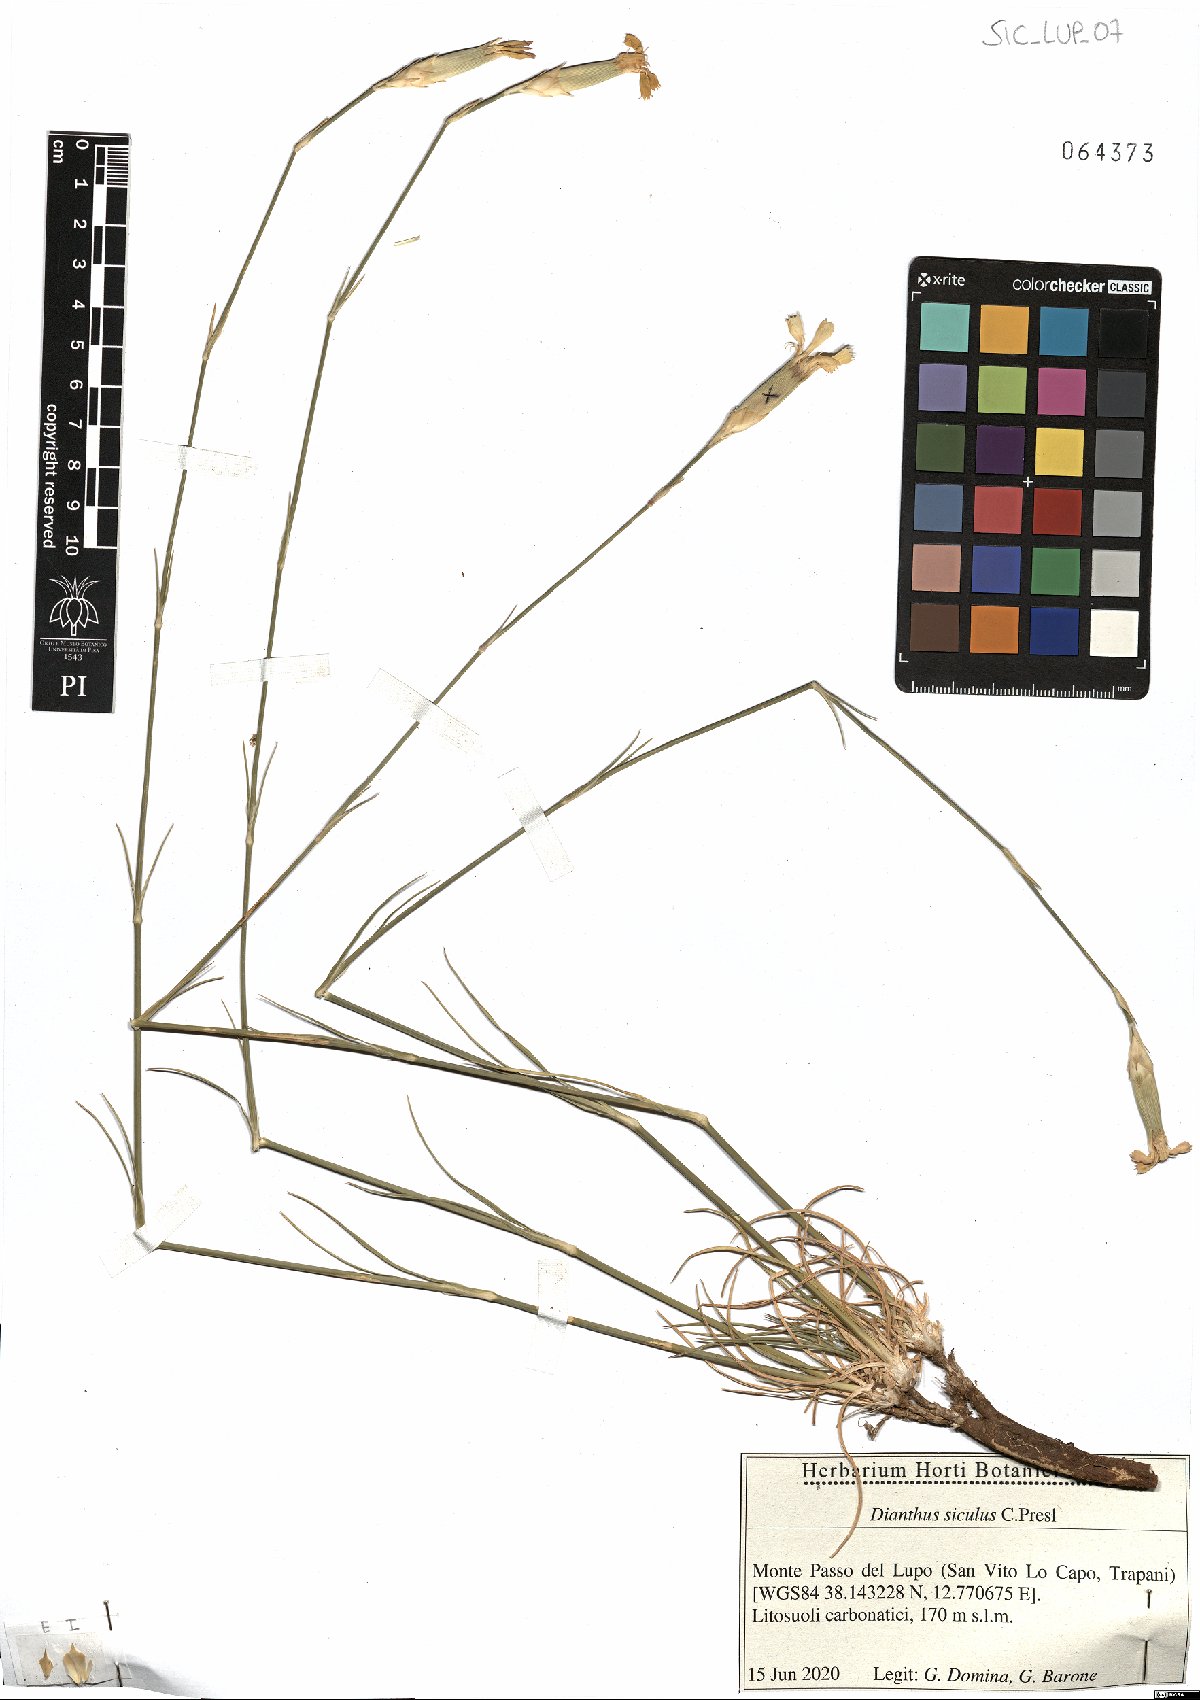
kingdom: Plantae
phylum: Tracheophyta
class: Magnoliopsida
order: Caryophyllales
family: Caryophyllaceae
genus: Dianthus
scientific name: Dianthus siculus
